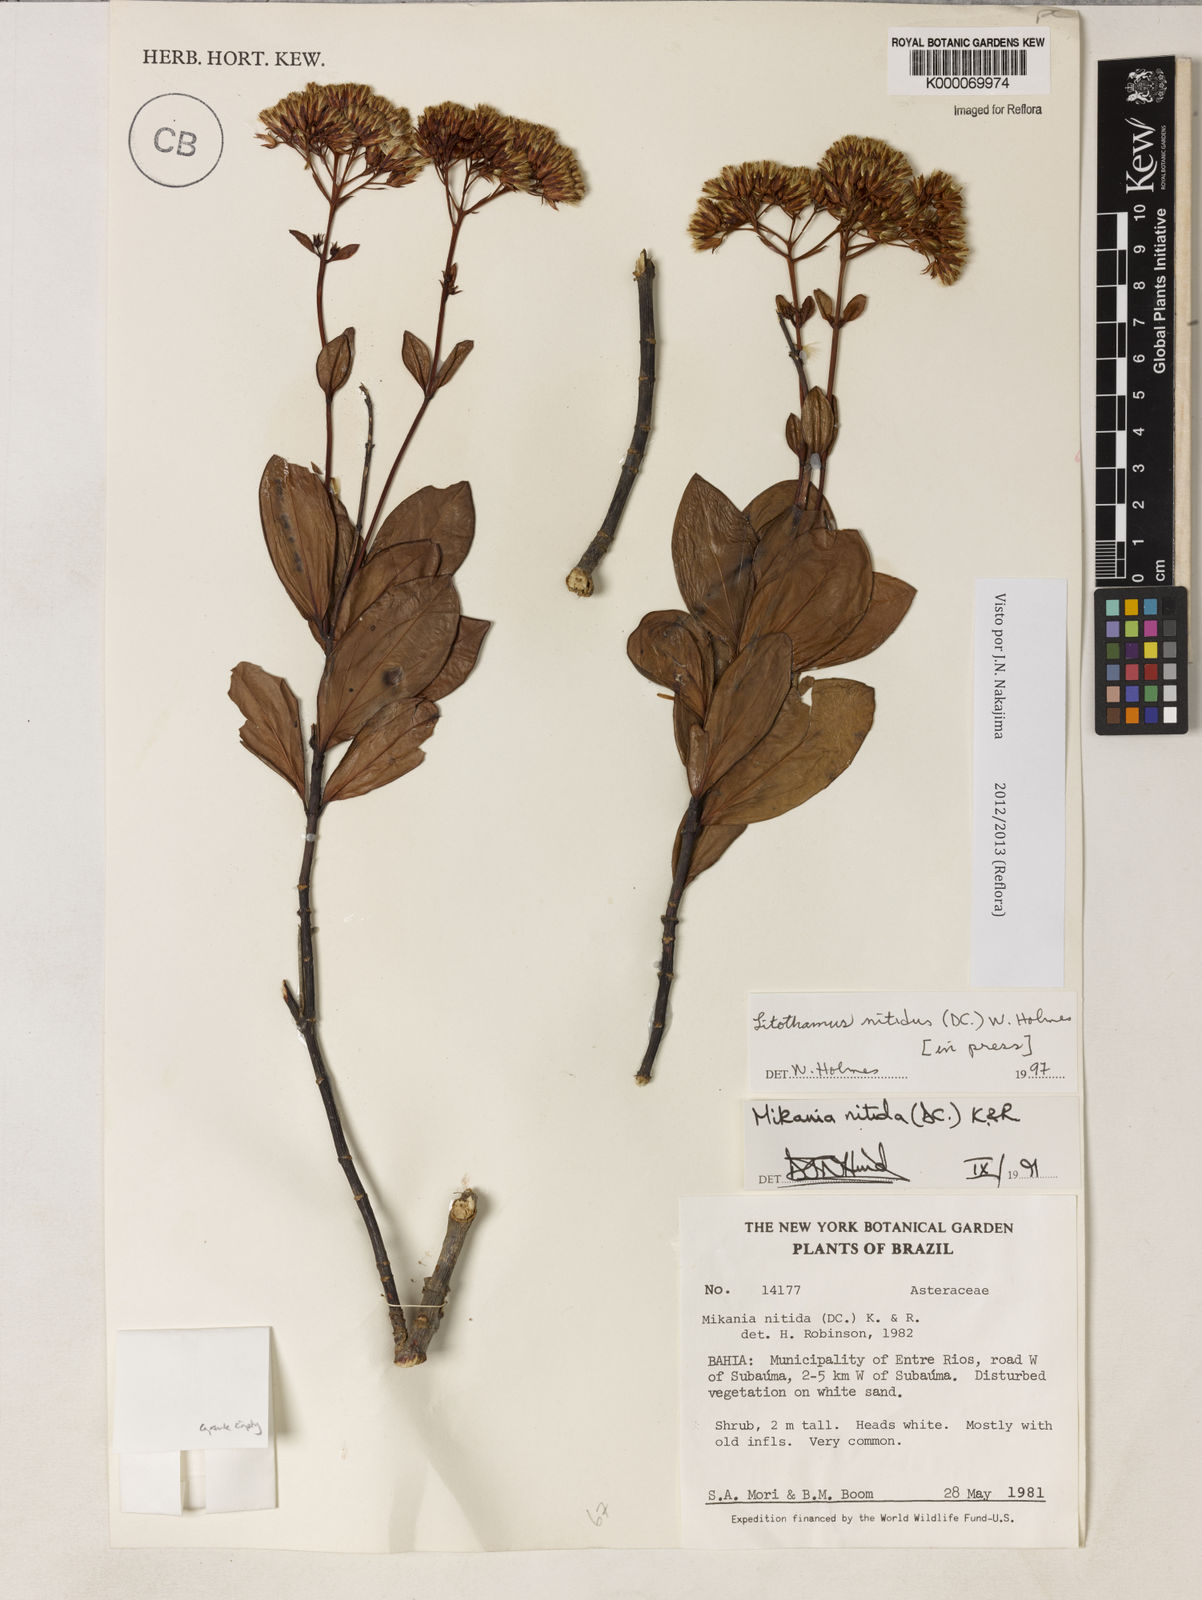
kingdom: Plantae
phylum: Tracheophyta
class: Magnoliopsida
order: Asterales
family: Asteraceae
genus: Litothamnus
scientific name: Litothamnus nitidus
